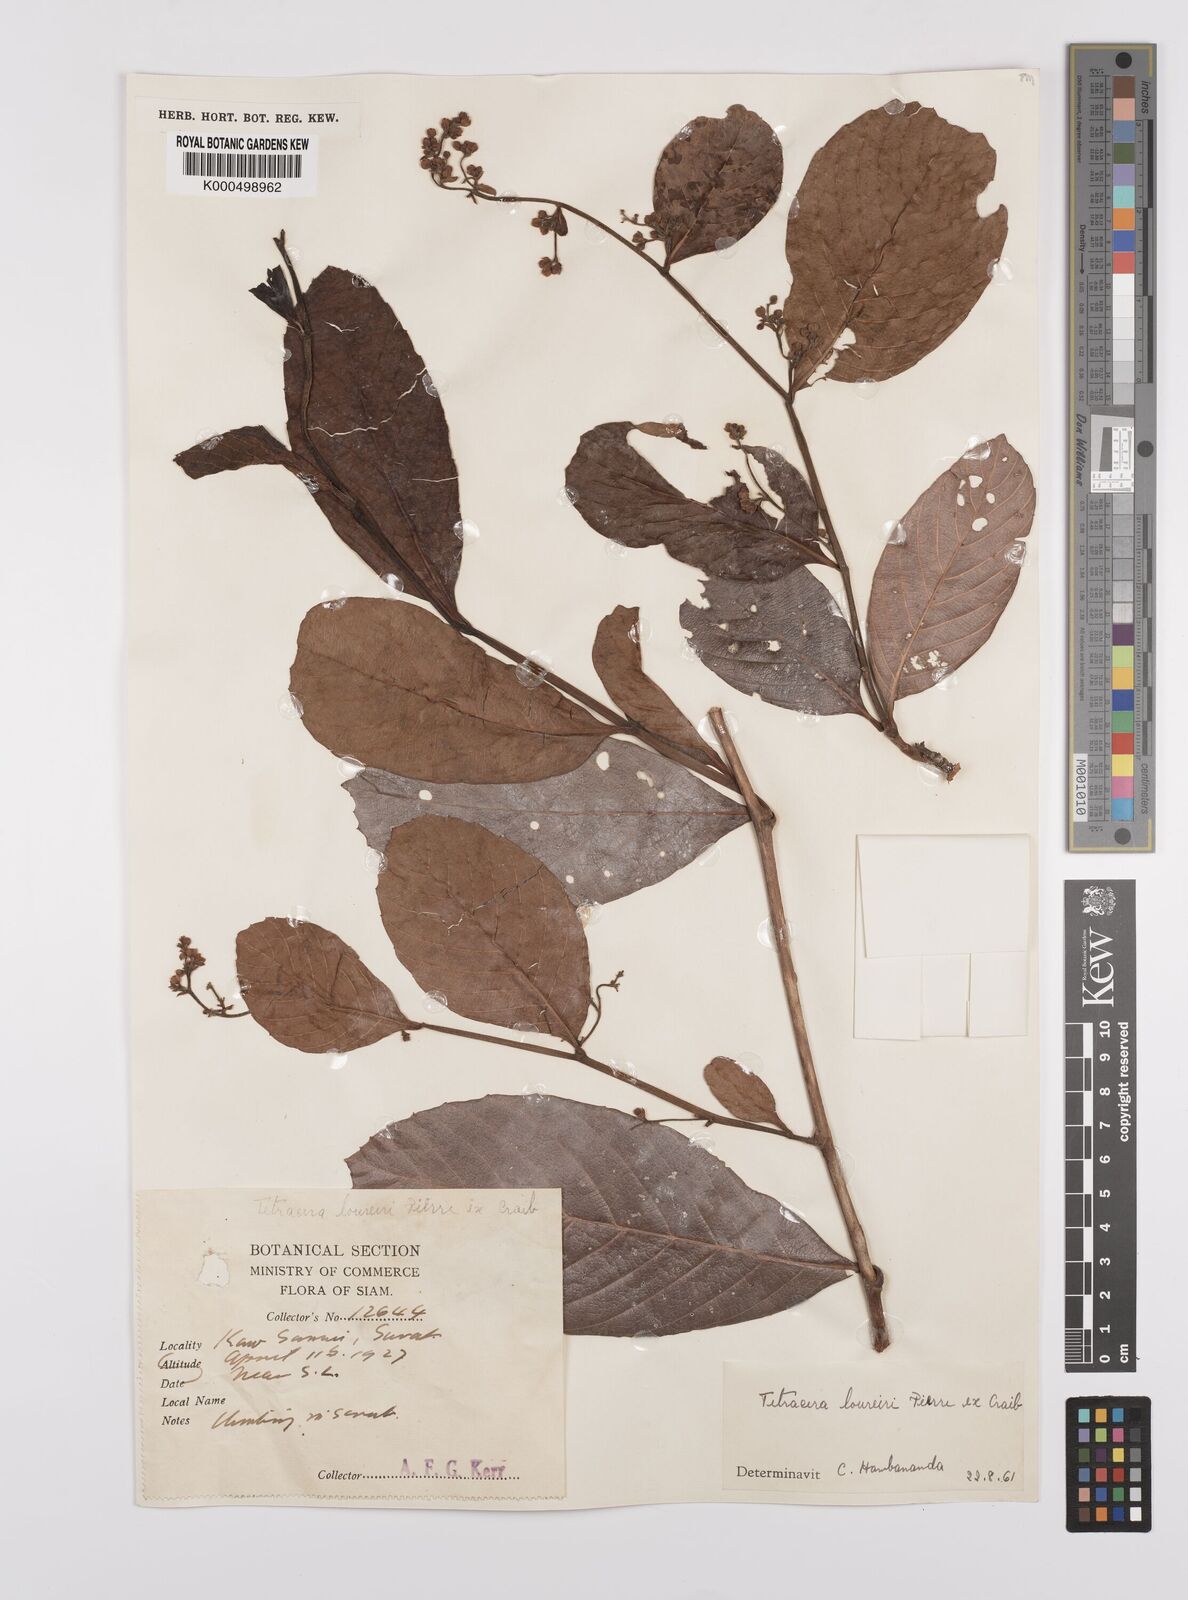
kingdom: Plantae
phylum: Tracheophyta
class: Magnoliopsida
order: Dilleniales
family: Dilleniaceae
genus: Tetracera
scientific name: Tetracera scandens
